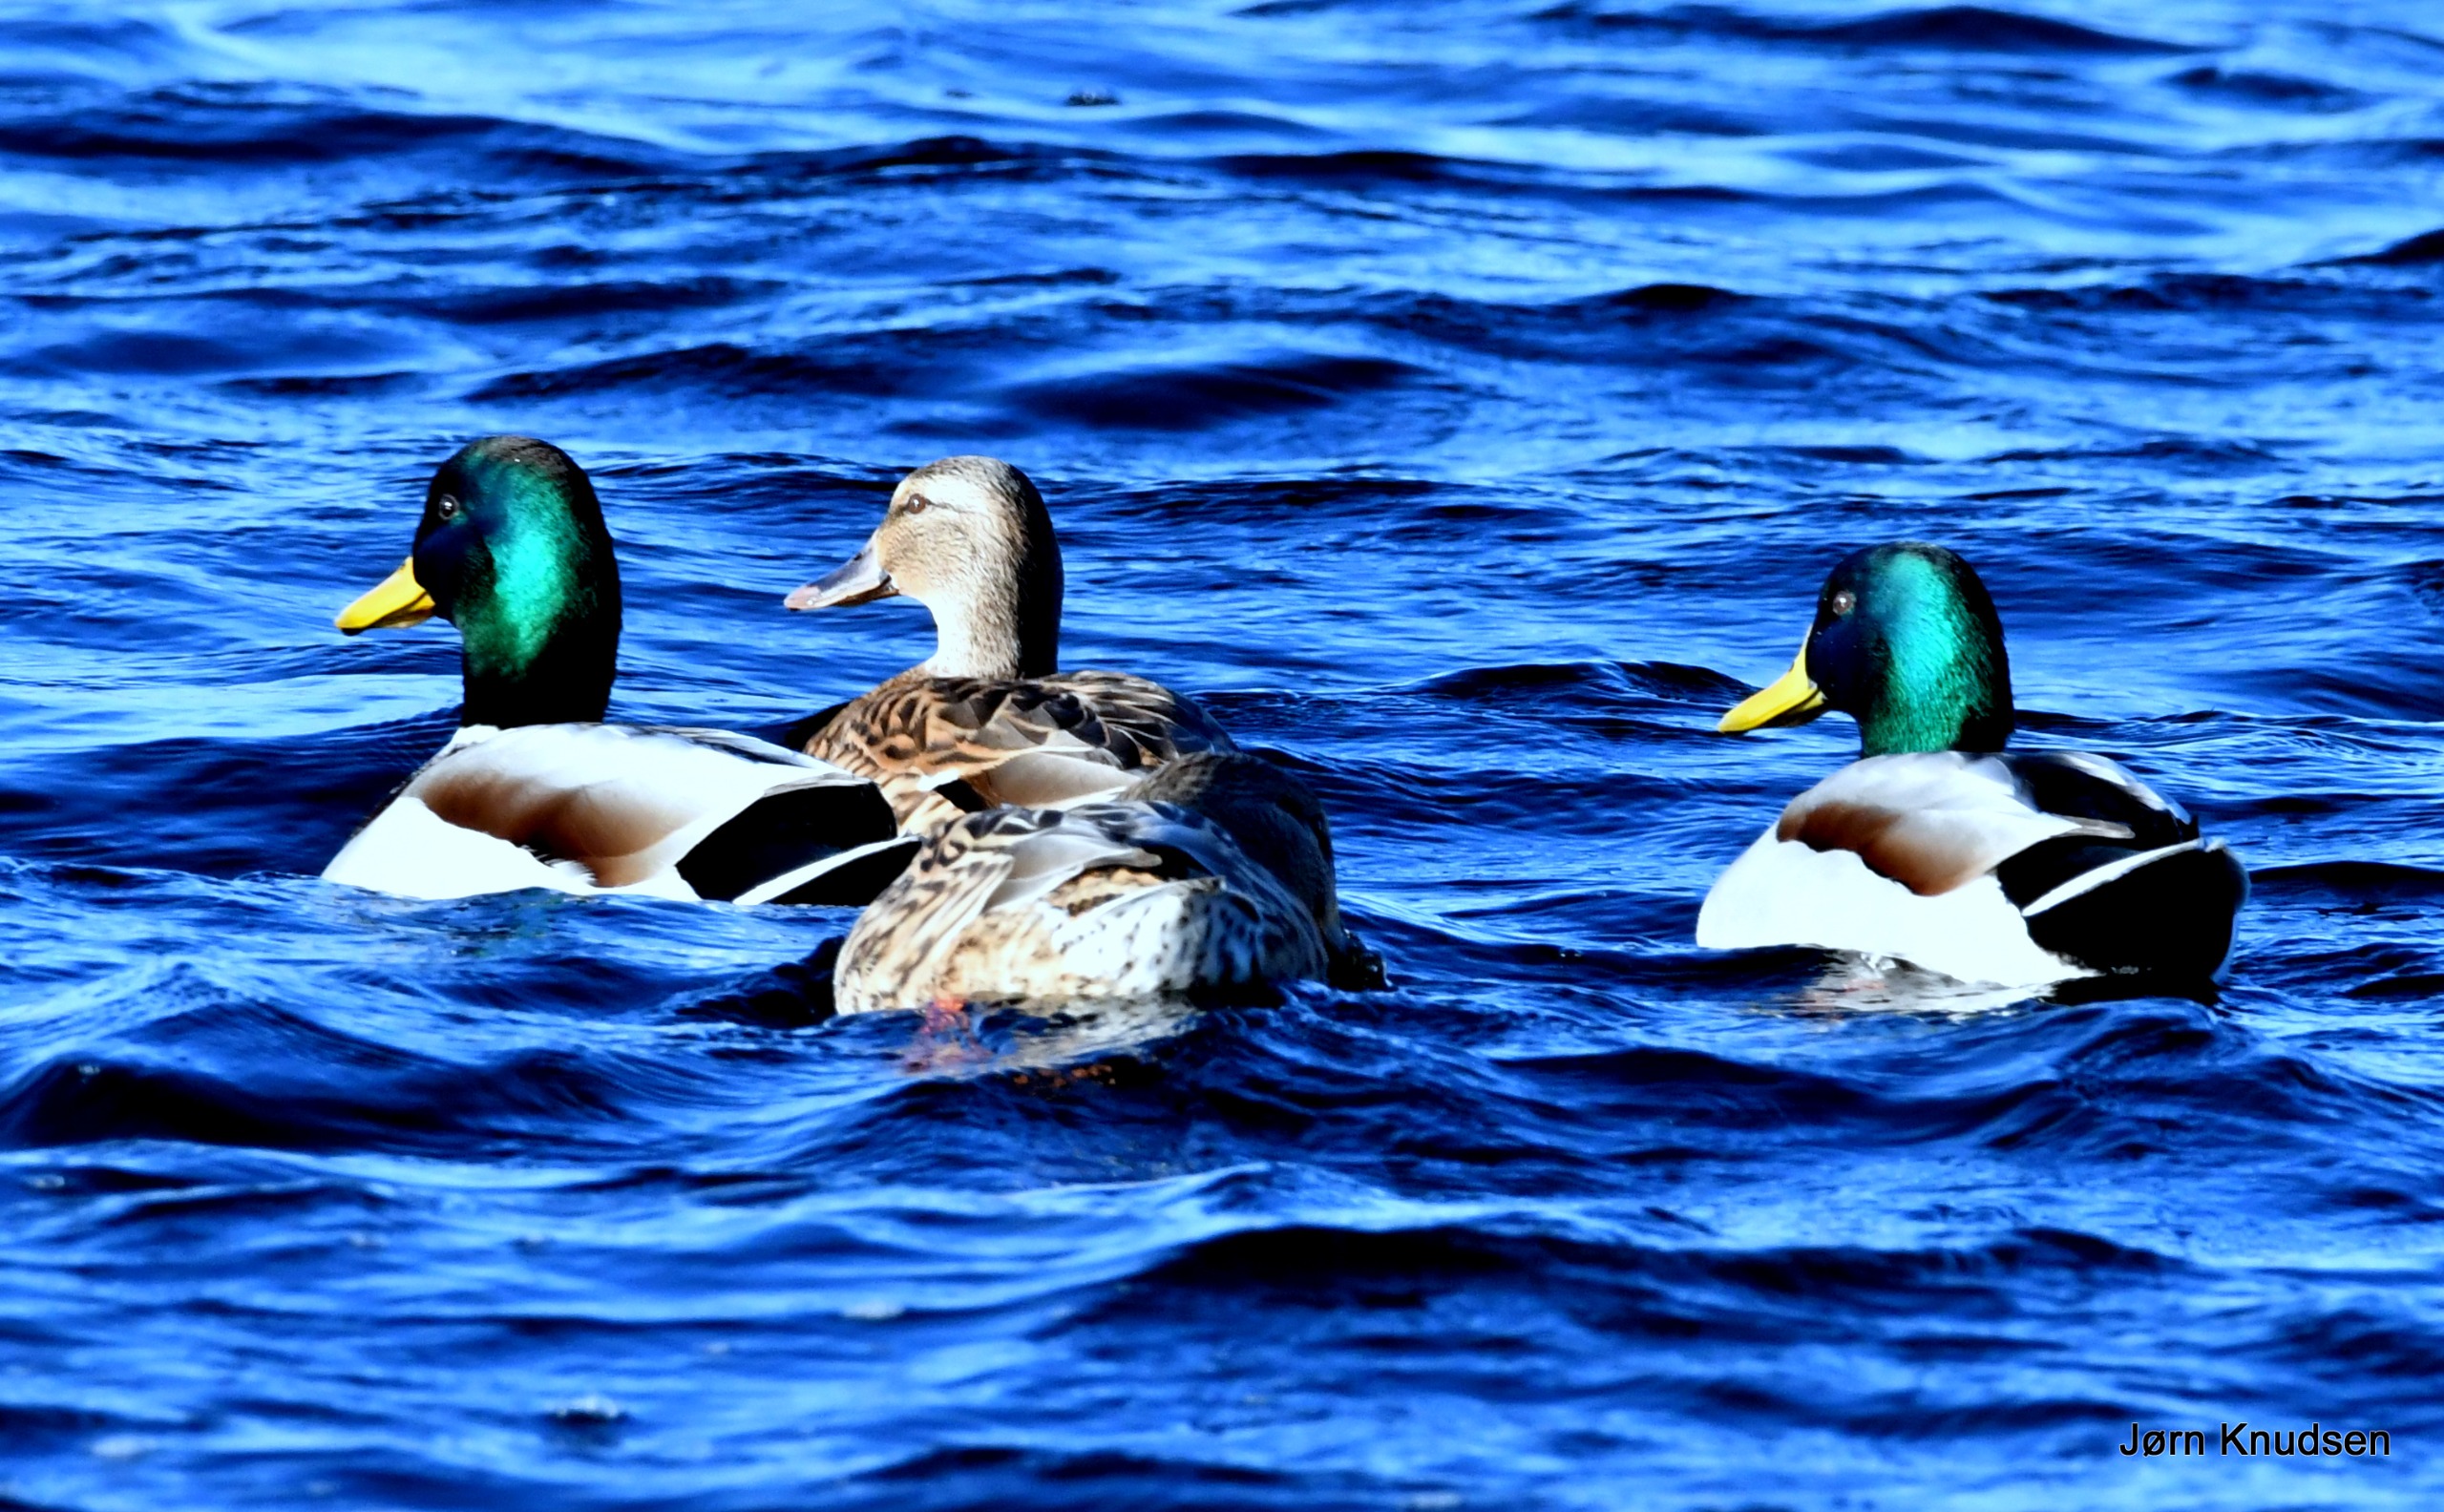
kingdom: Animalia
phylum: Chordata
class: Aves
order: Anseriformes
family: Anatidae
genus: Anas
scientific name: Anas platyrhynchos
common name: Gråand
